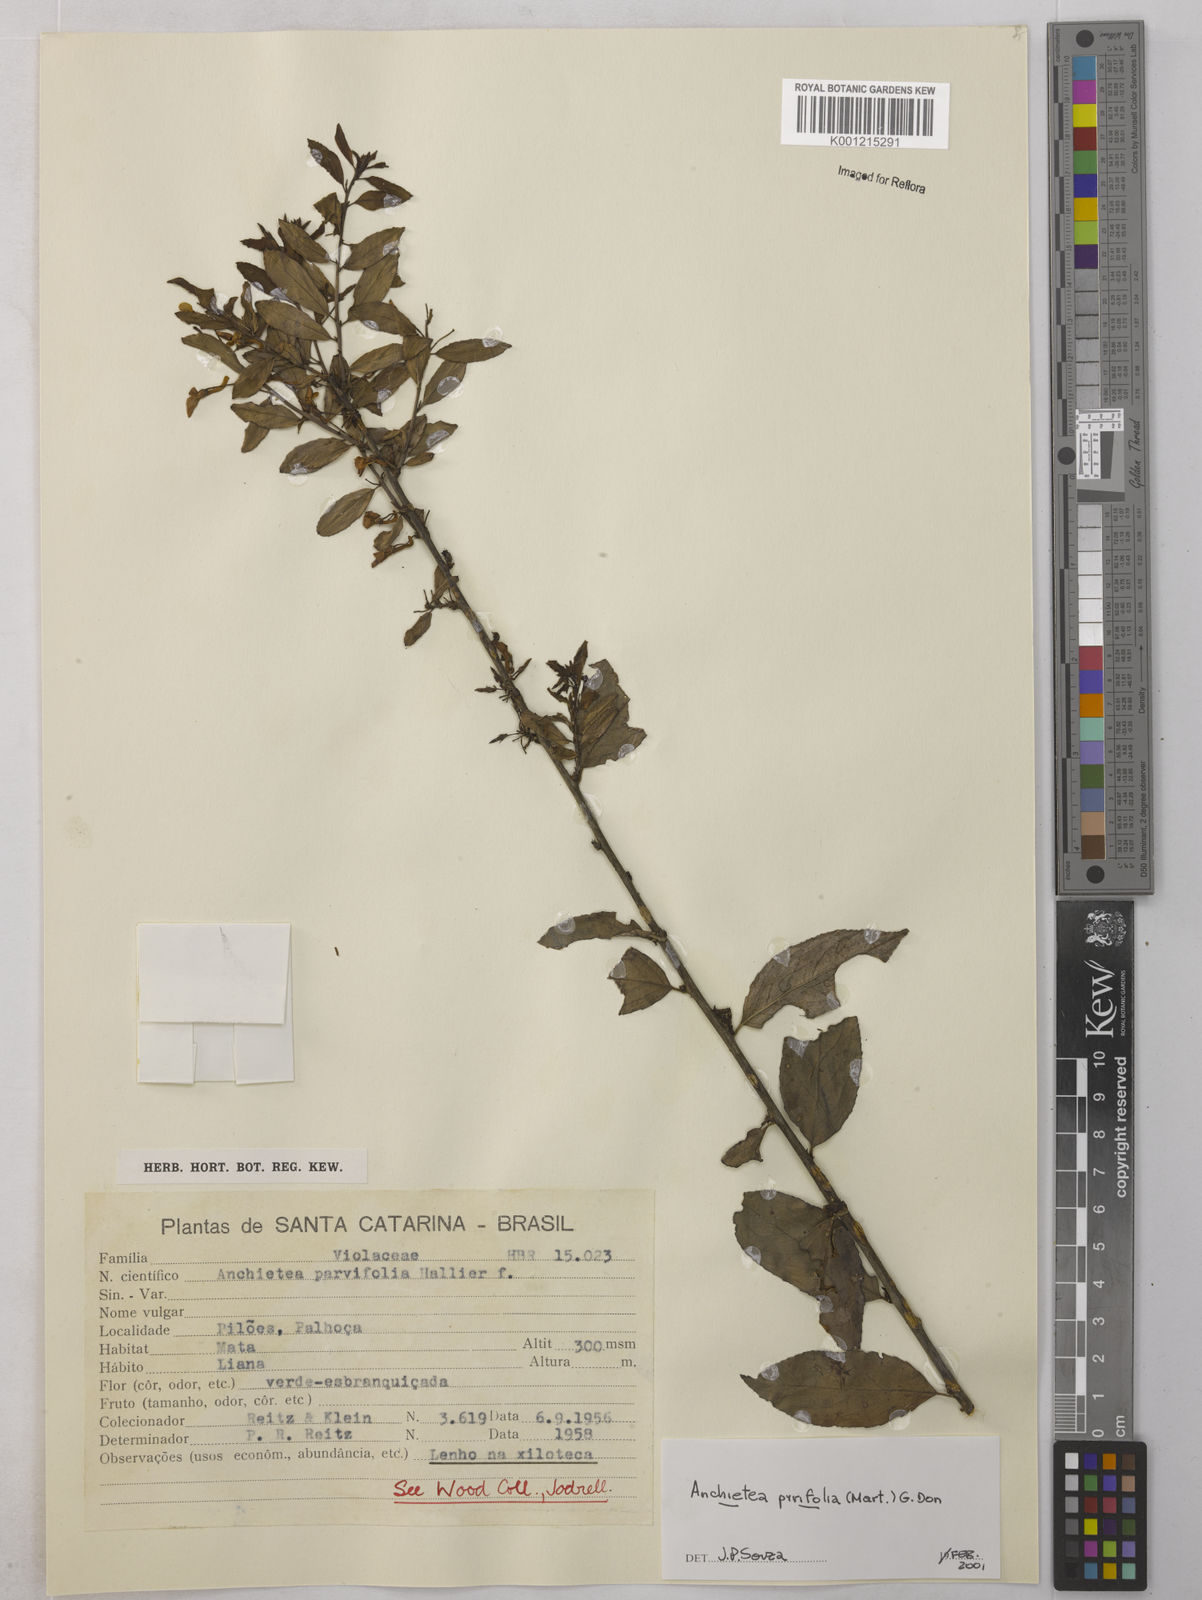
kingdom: Plantae
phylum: Tracheophyta
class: Magnoliopsida
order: Malpighiales
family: Violaceae
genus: Anchietea
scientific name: Anchietea pyrifolia
